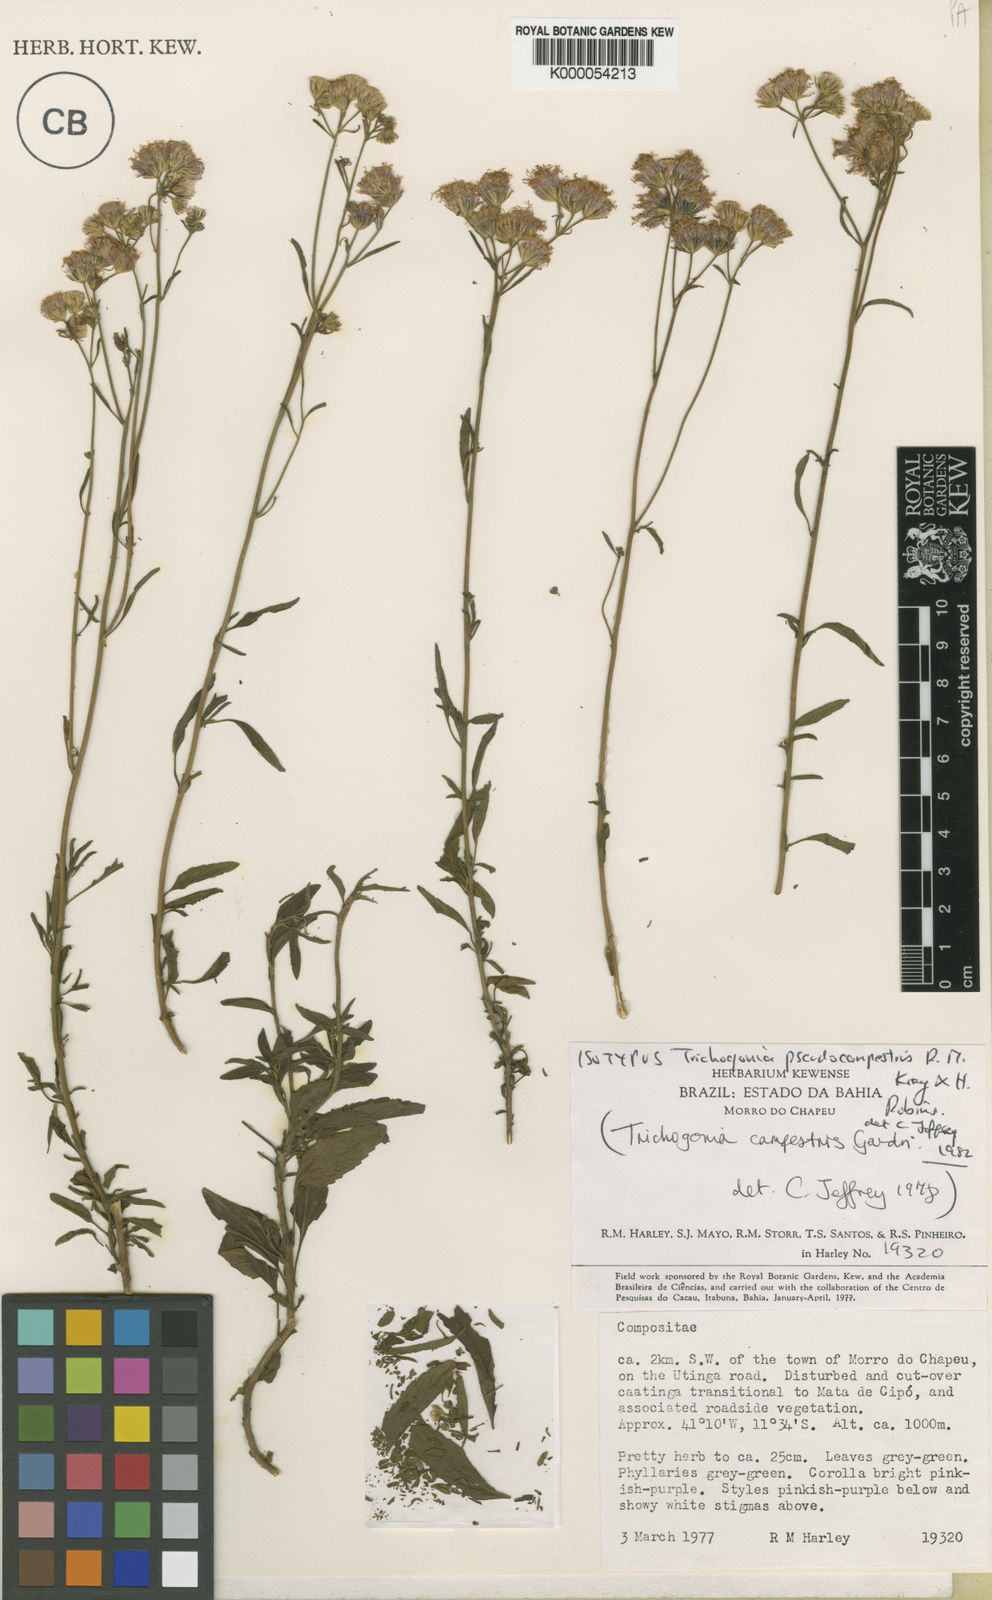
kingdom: Plantae
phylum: Tracheophyta
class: Magnoliopsida
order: Asterales
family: Asteraceae
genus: Trichogonia
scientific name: Trichogonia campestris
